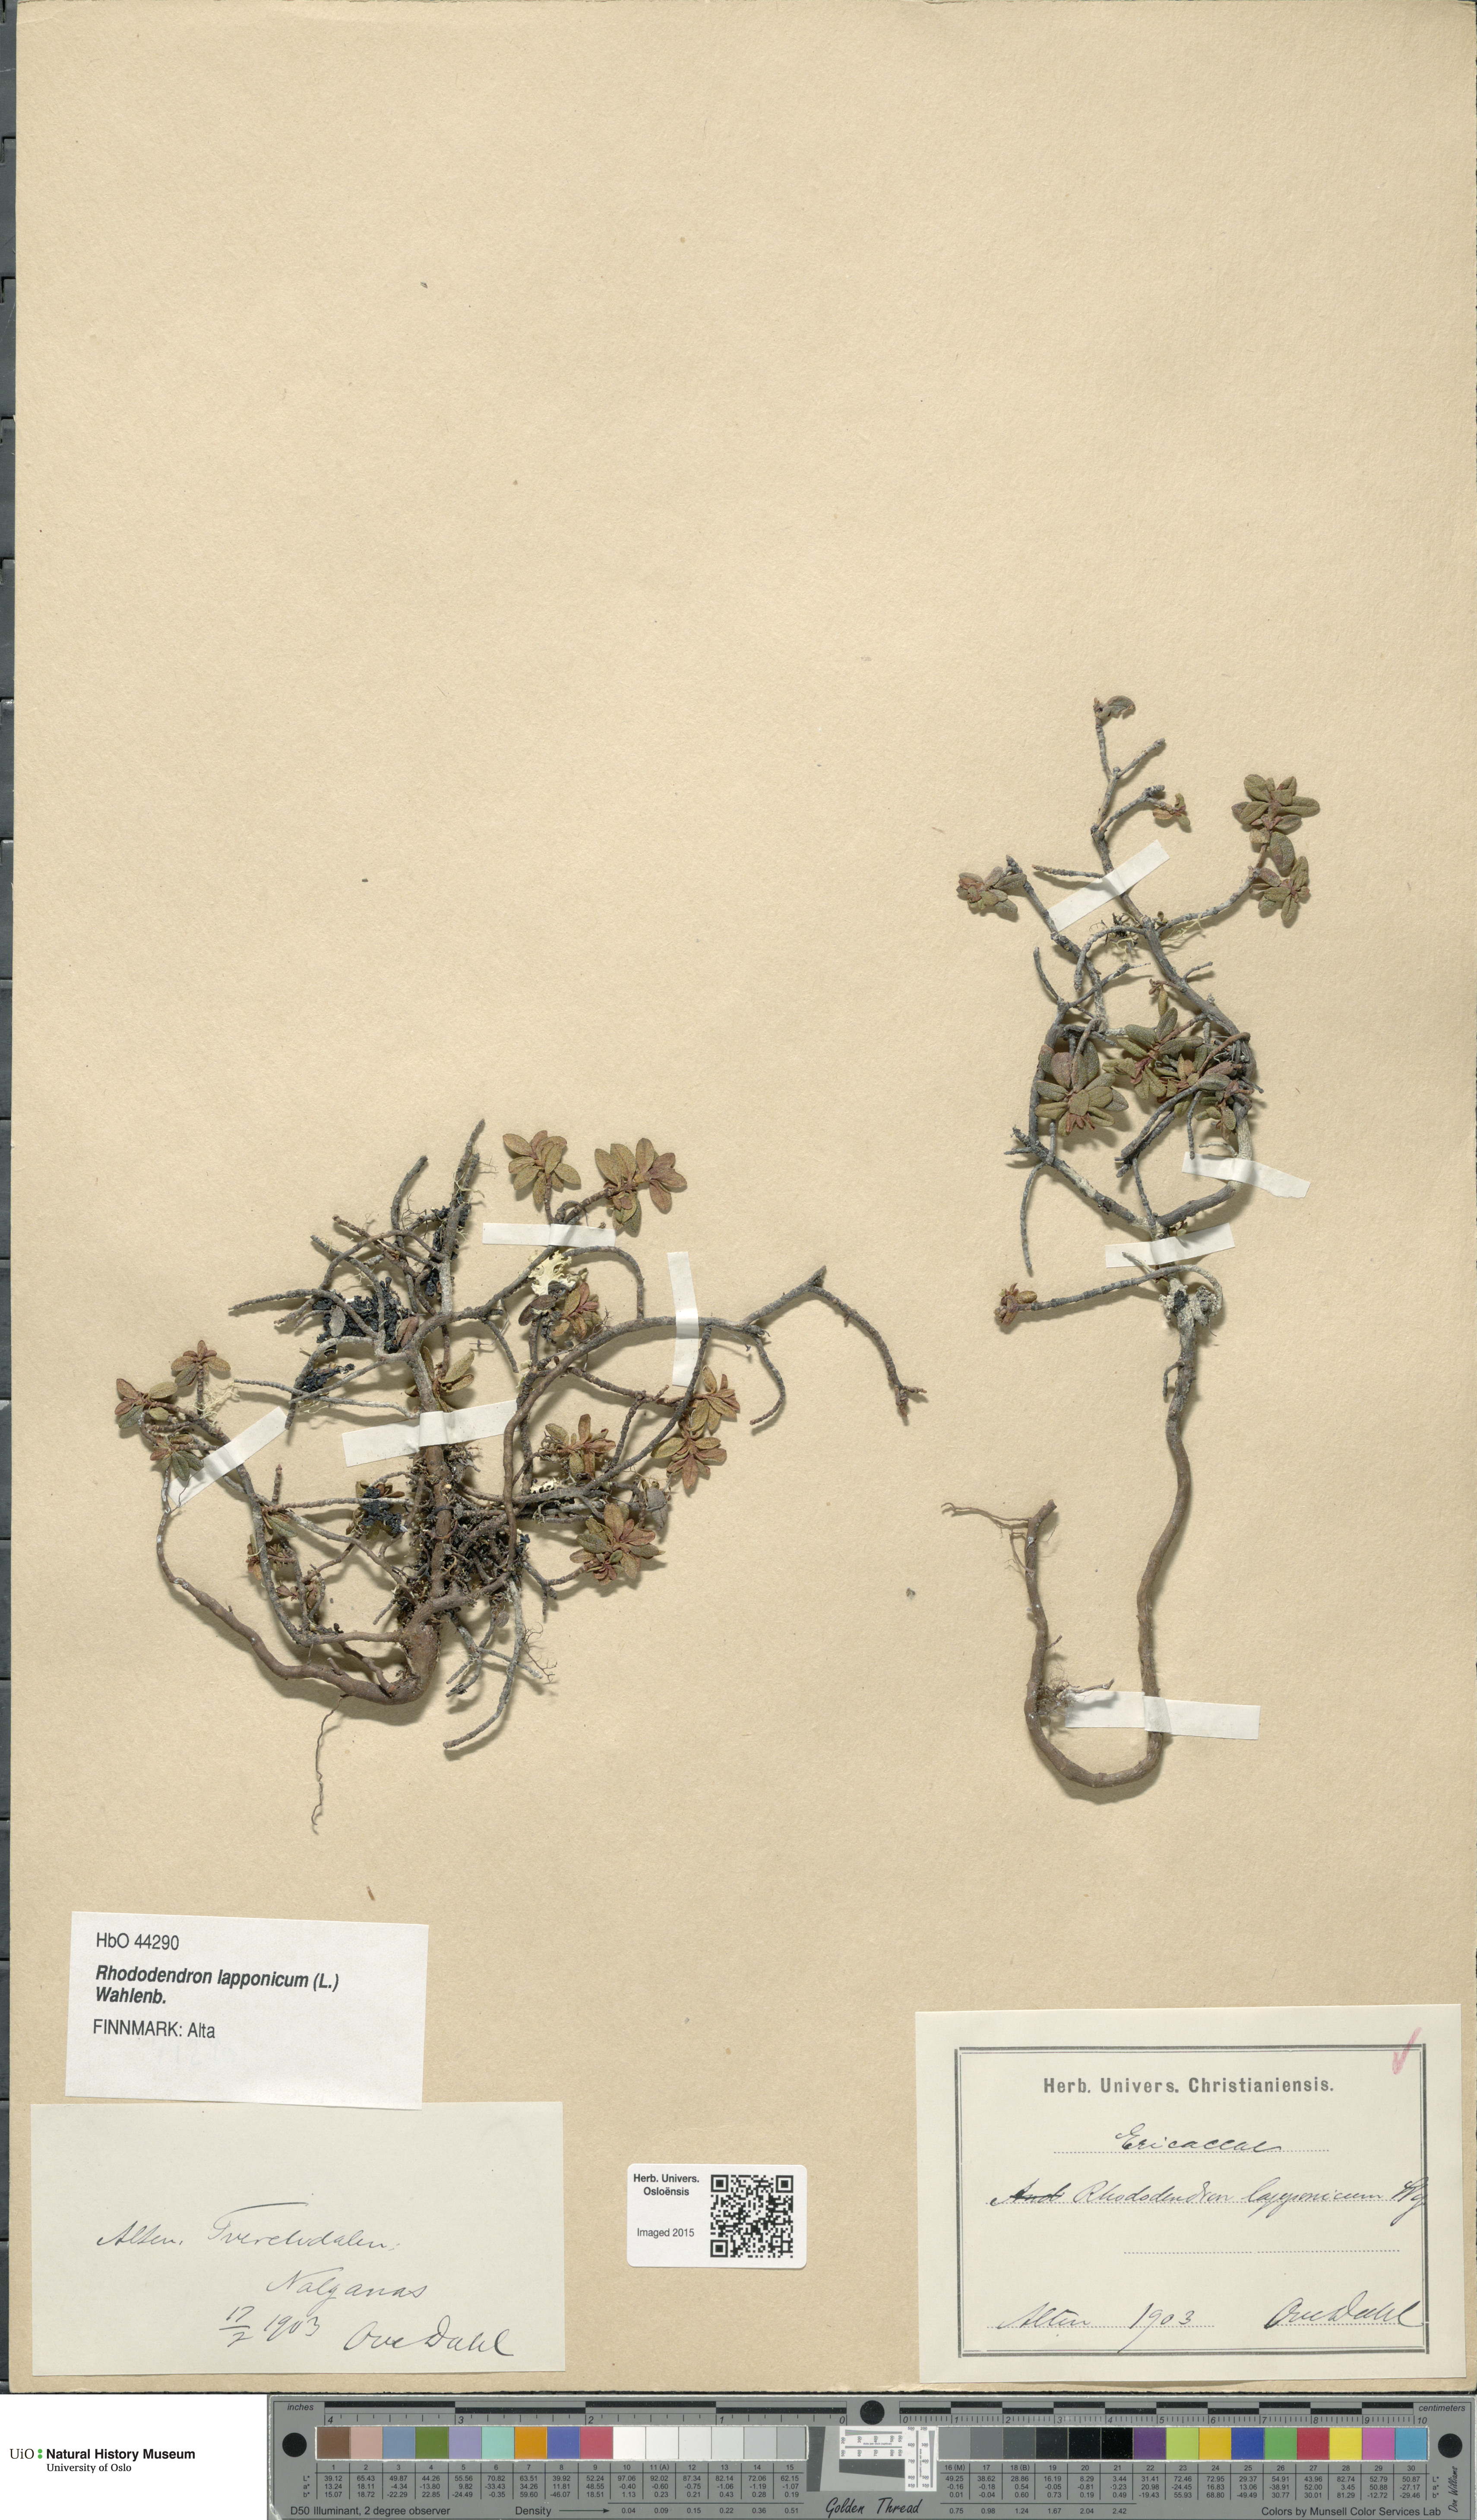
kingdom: Plantae
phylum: Tracheophyta
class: Magnoliopsida
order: Ericales
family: Ericaceae
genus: Rhododendron
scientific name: Rhododendron lapponicum
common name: Lapland rhododendron
